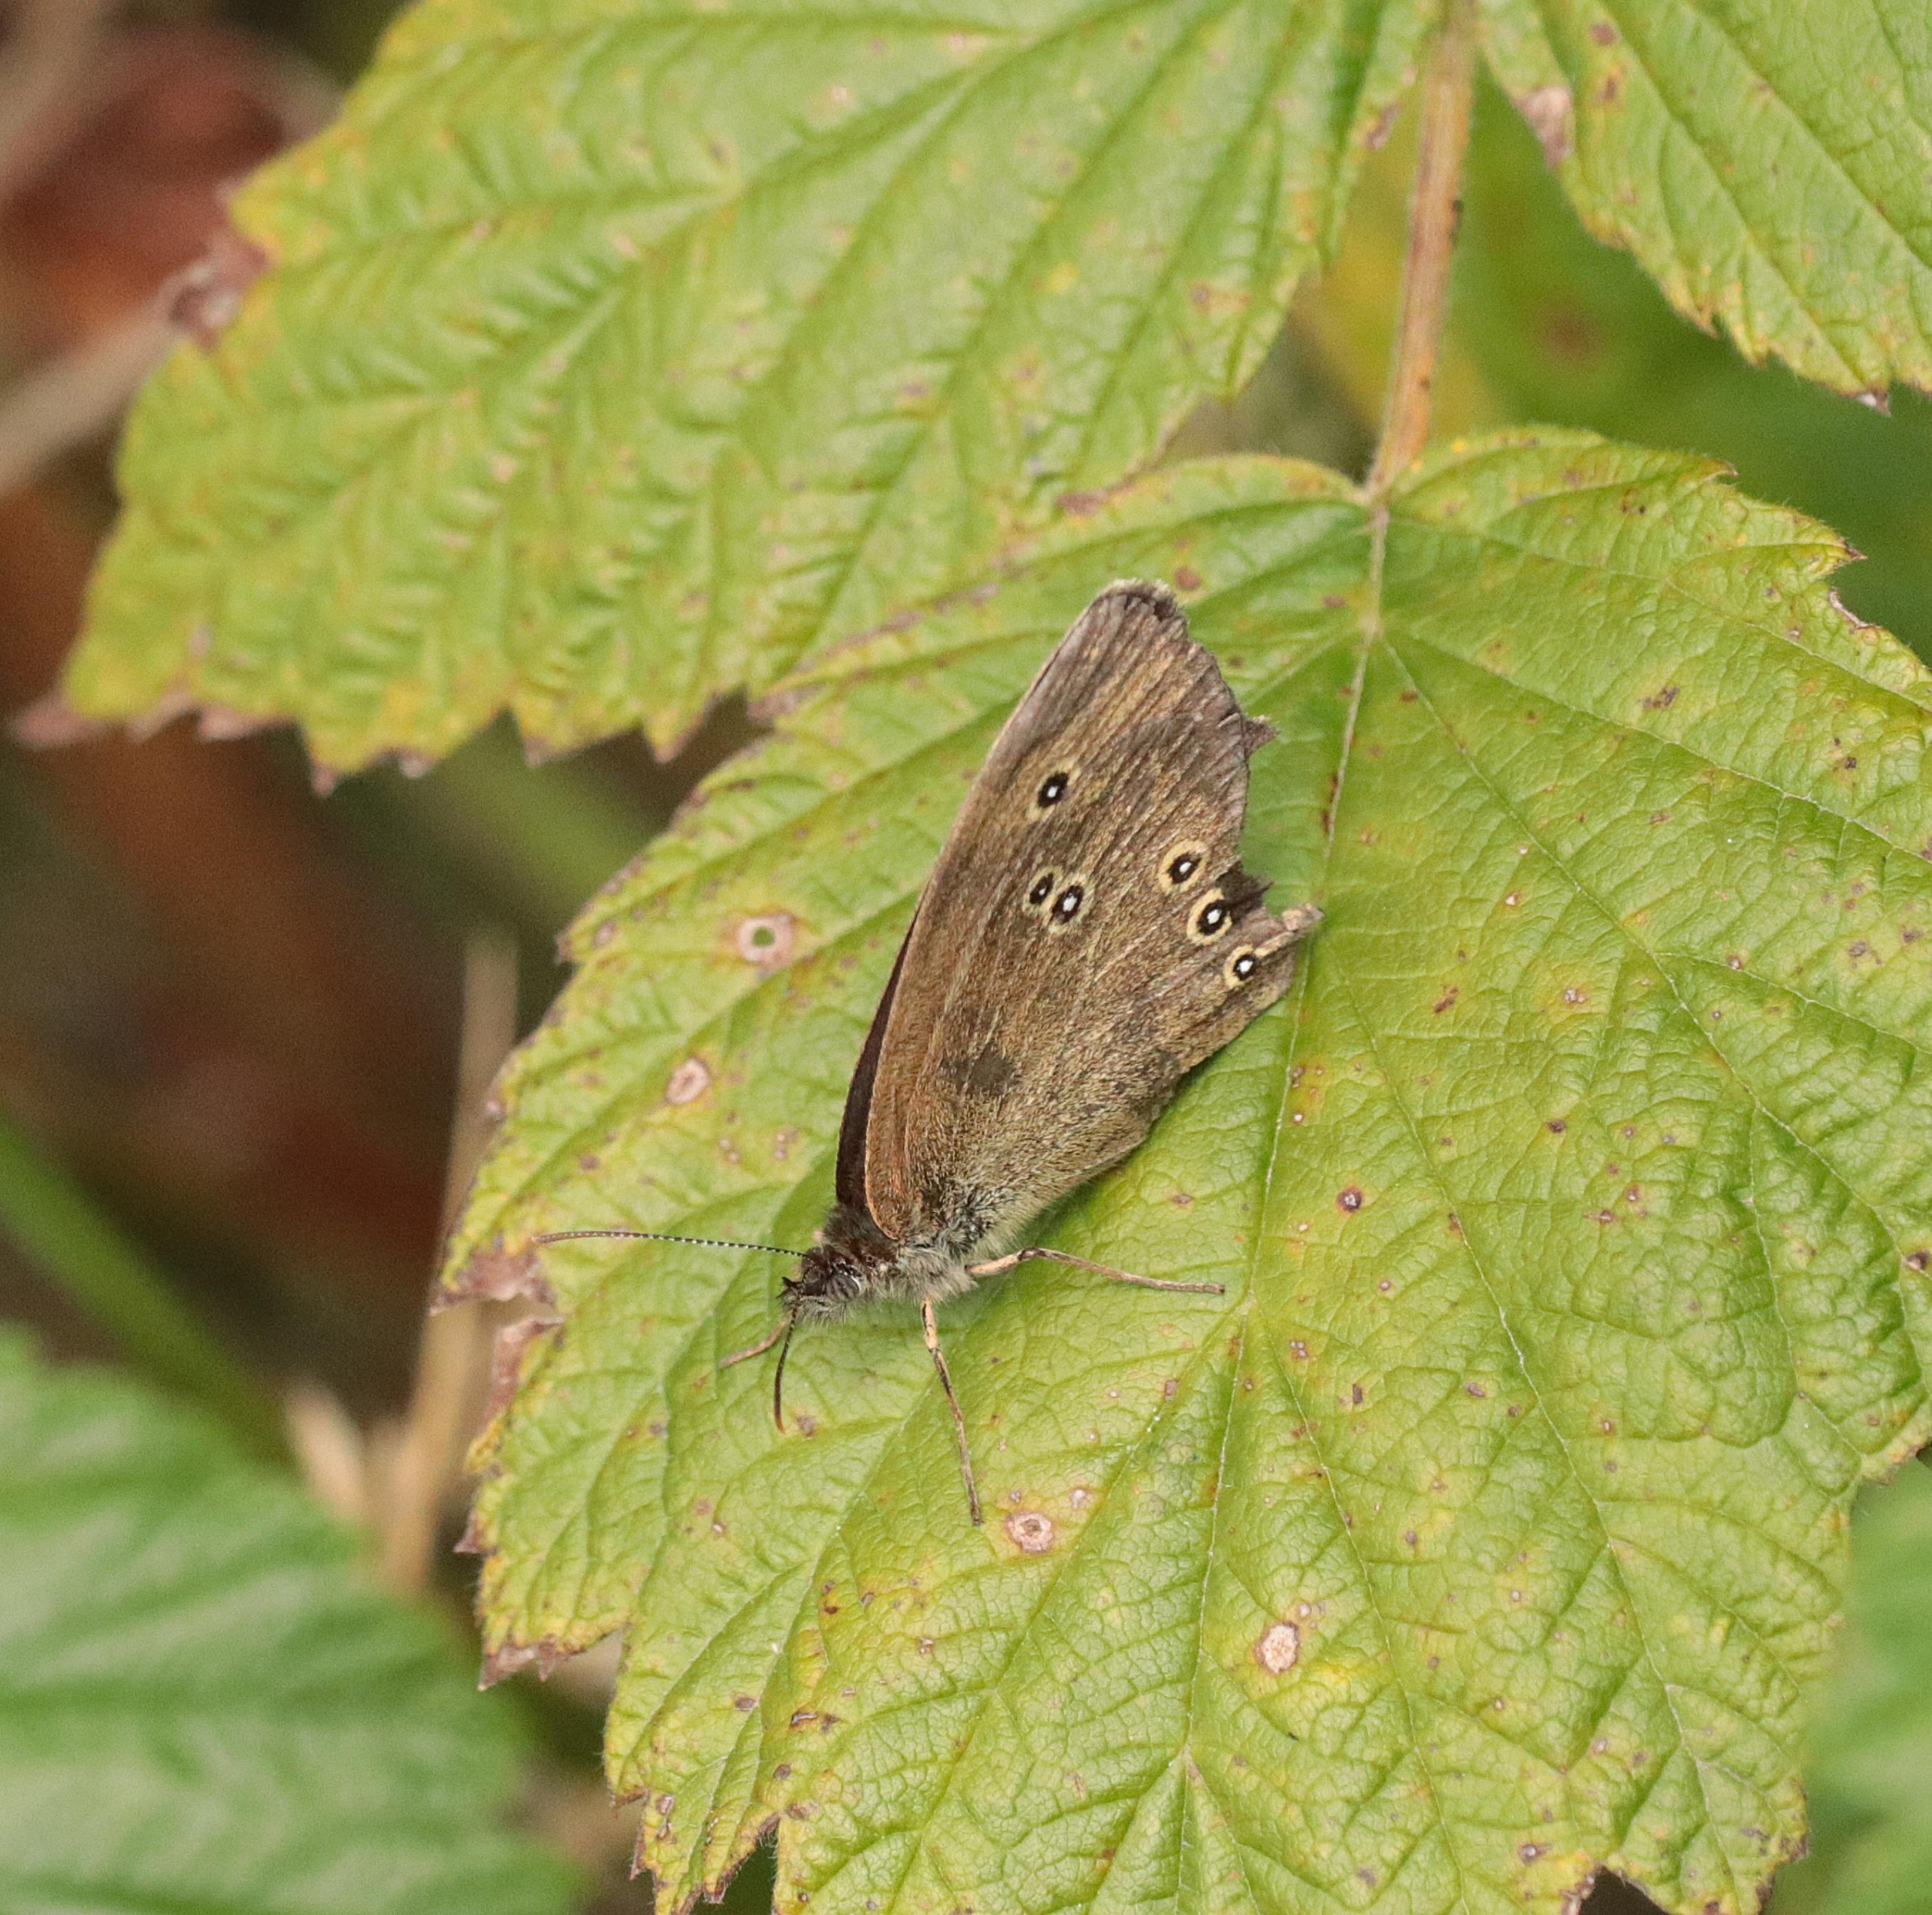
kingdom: Animalia
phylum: Arthropoda
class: Insecta
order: Lepidoptera
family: Nymphalidae
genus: Aphantopus
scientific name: Aphantopus hyperantus
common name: Engrandøje
